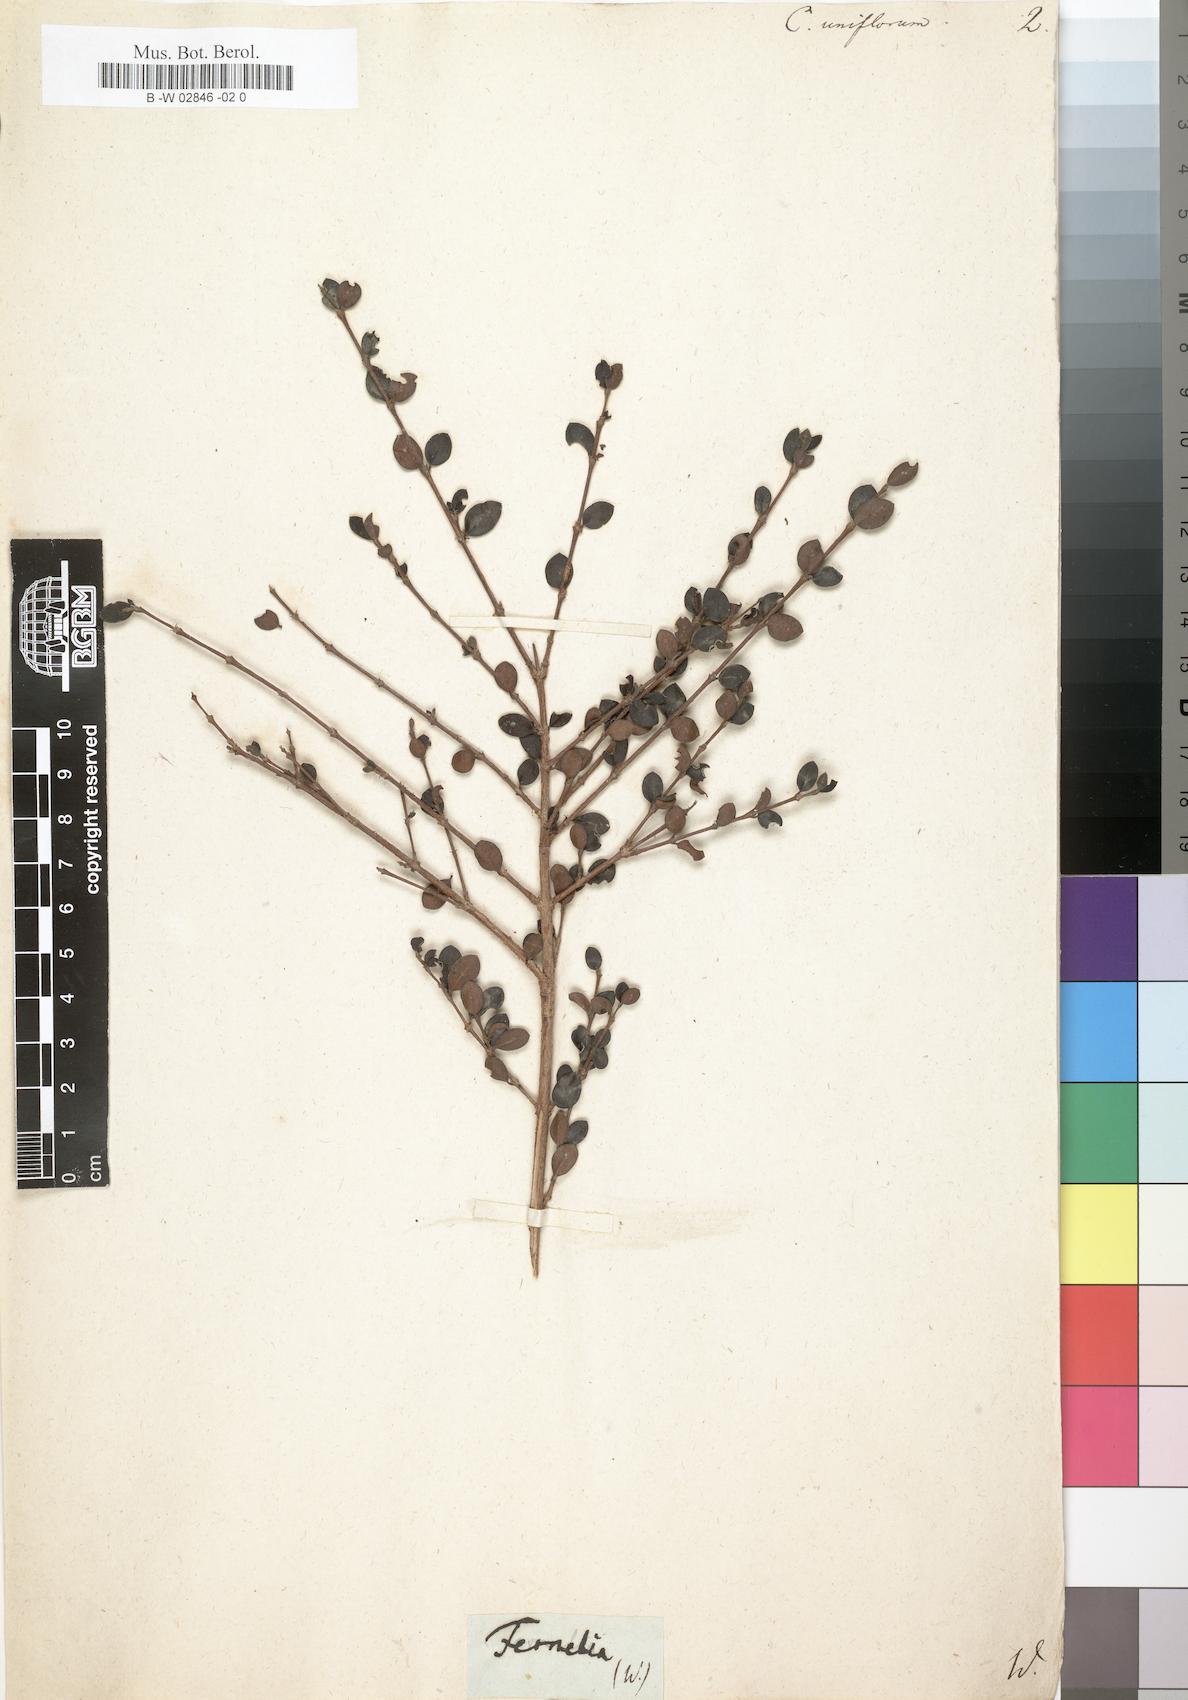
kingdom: Plantae
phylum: Tracheophyta
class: Magnoliopsida
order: Gentianales
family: Rubiaceae
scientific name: Rubiaceae
